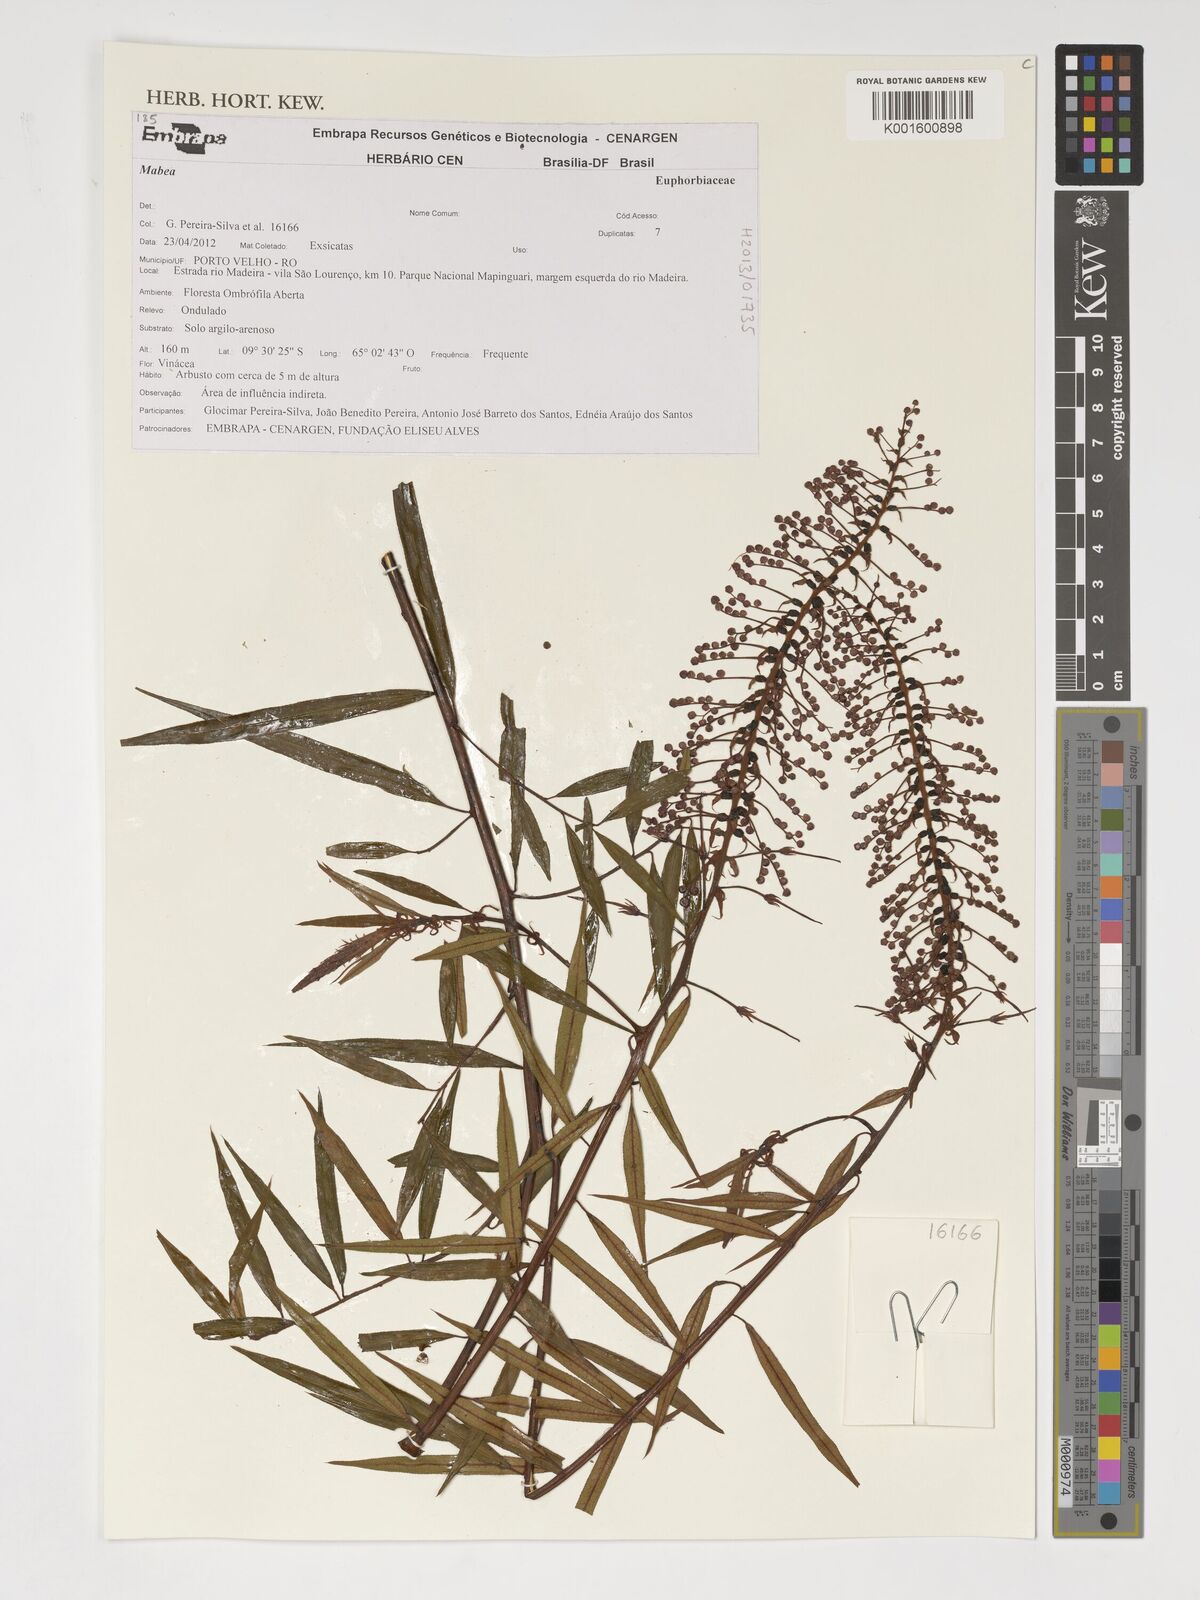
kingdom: Plantae
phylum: Tracheophyta
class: Magnoliopsida
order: Malpighiales
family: Euphorbiaceae
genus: Mabea
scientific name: Mabea
